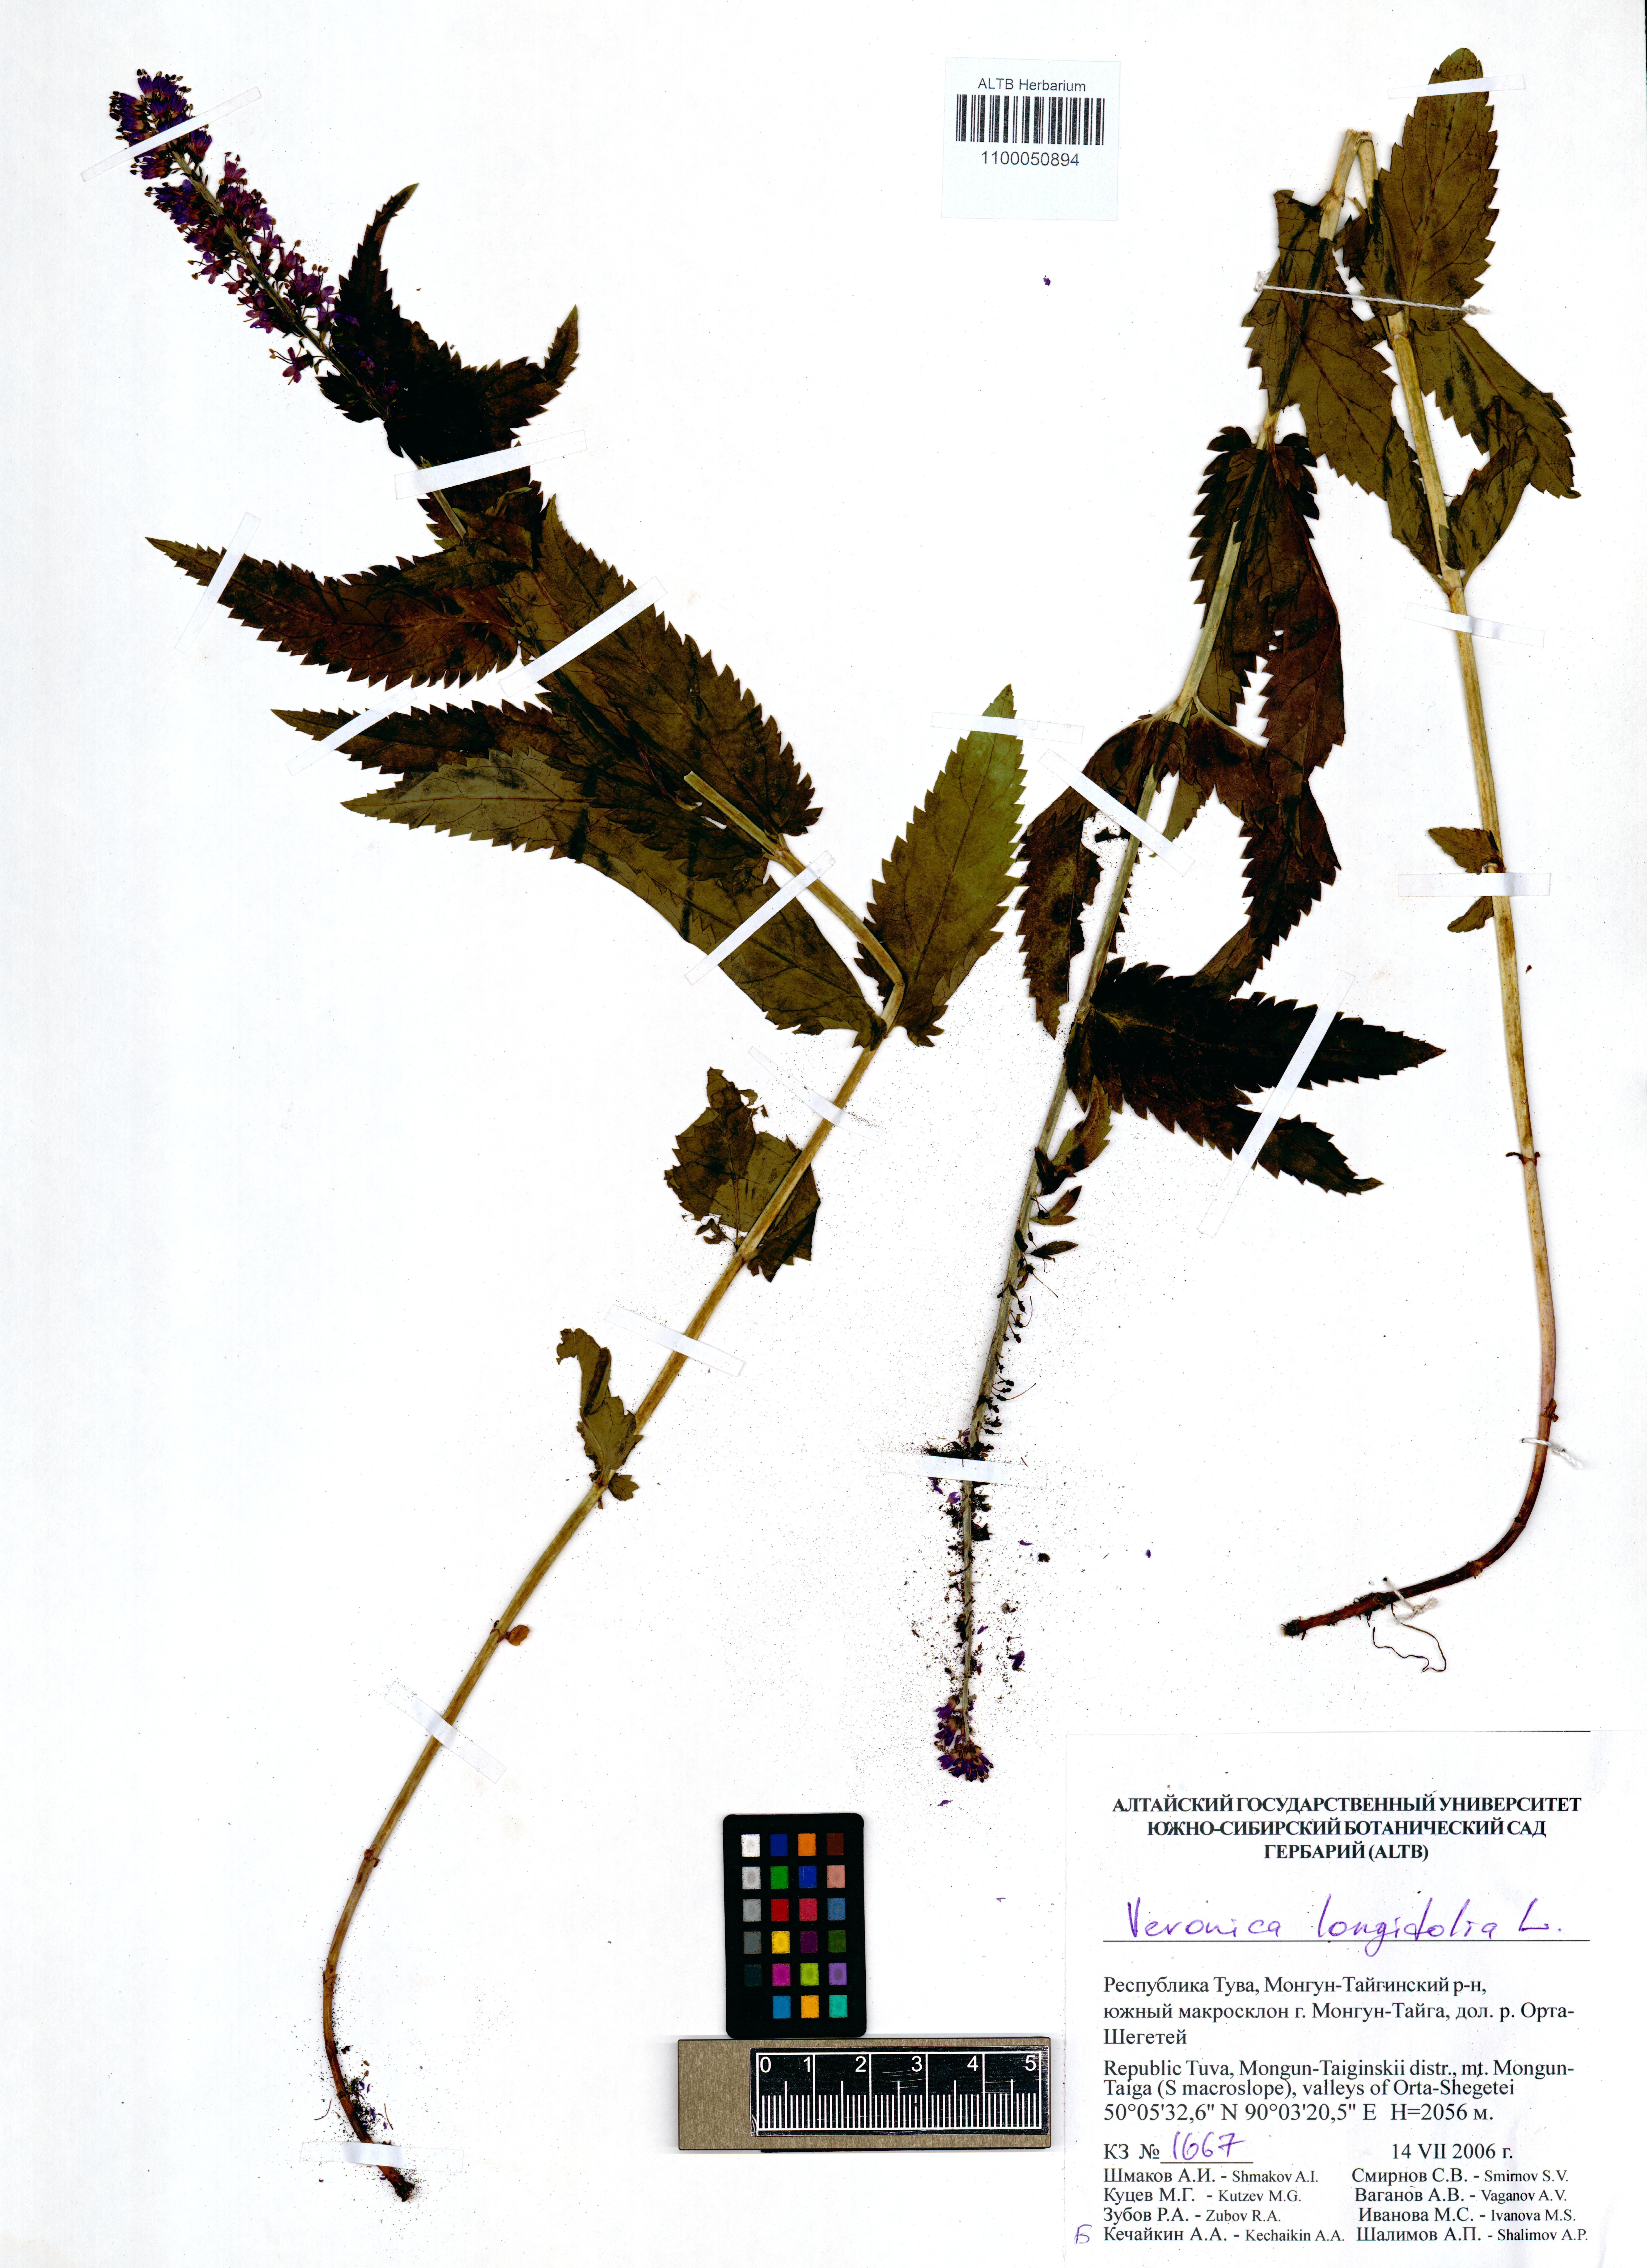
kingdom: Plantae
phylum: Tracheophyta
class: Magnoliopsida
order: Lamiales
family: Plantaginaceae
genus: Veronica
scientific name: Veronica longifolia
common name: Garden speedwell
